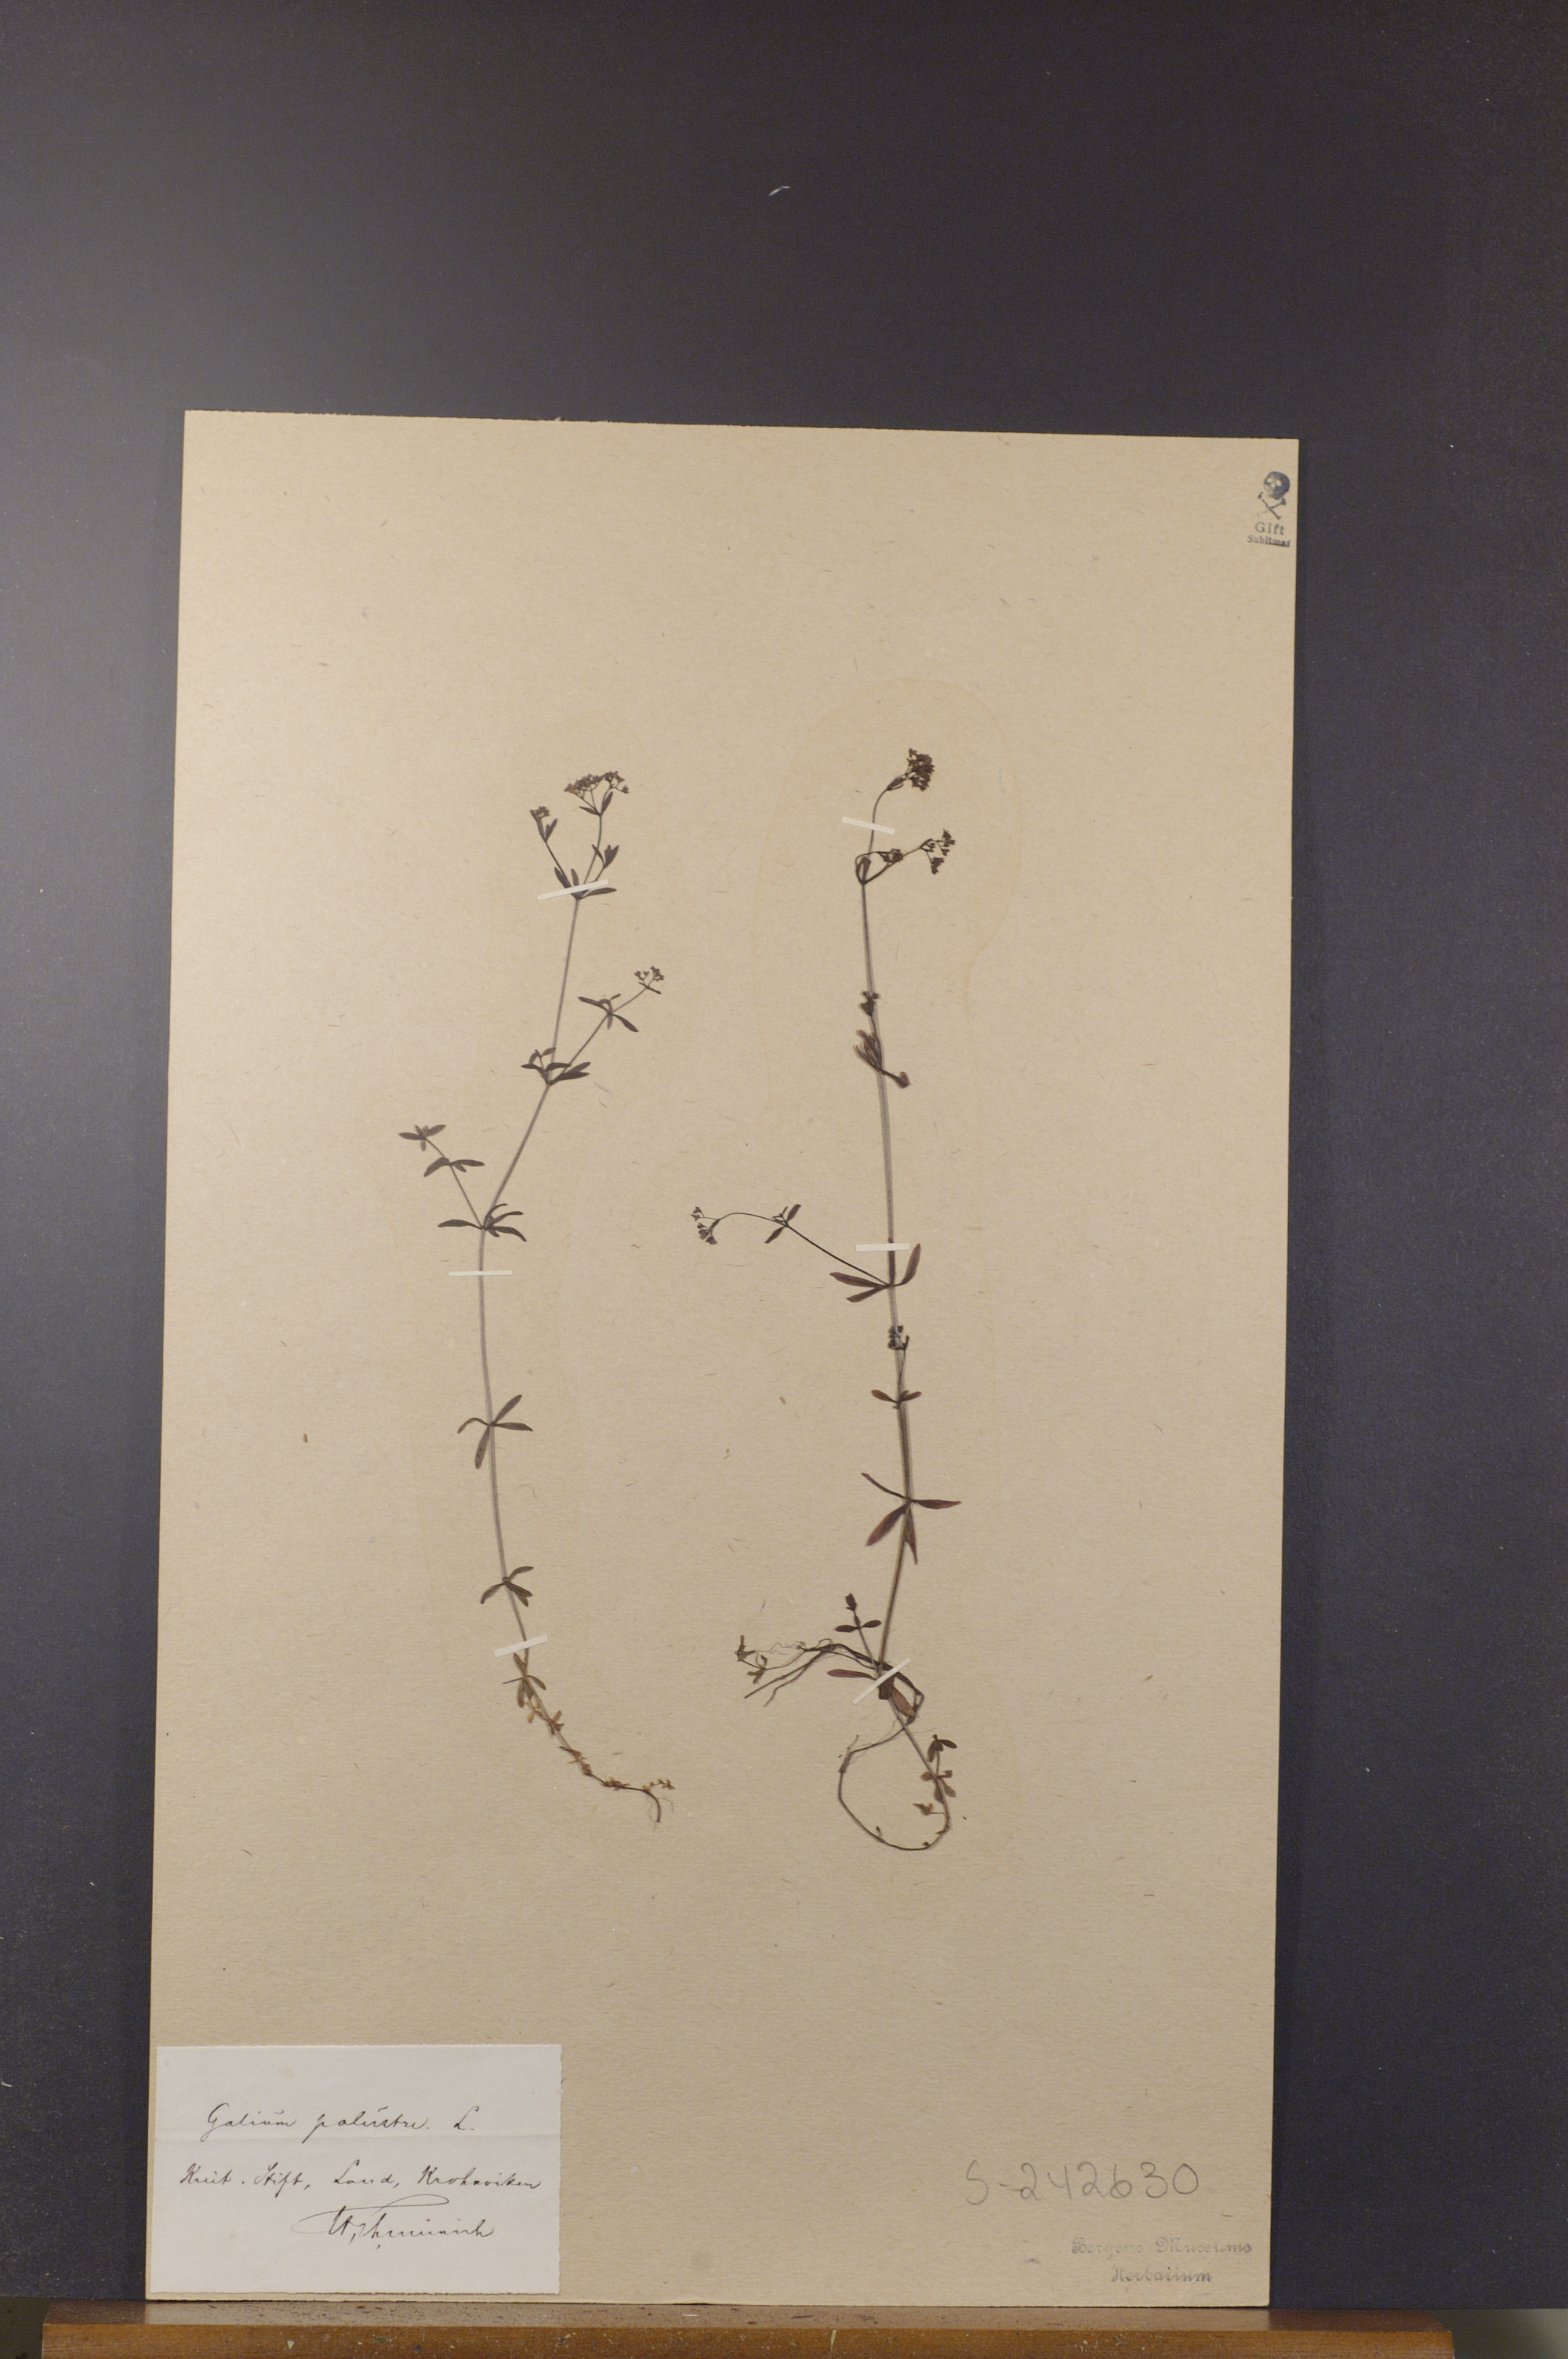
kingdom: Plantae
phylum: Tracheophyta
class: Magnoliopsida
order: Gentianales
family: Rubiaceae
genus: Galium
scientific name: Galium palustre
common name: Common marsh-bedstraw
